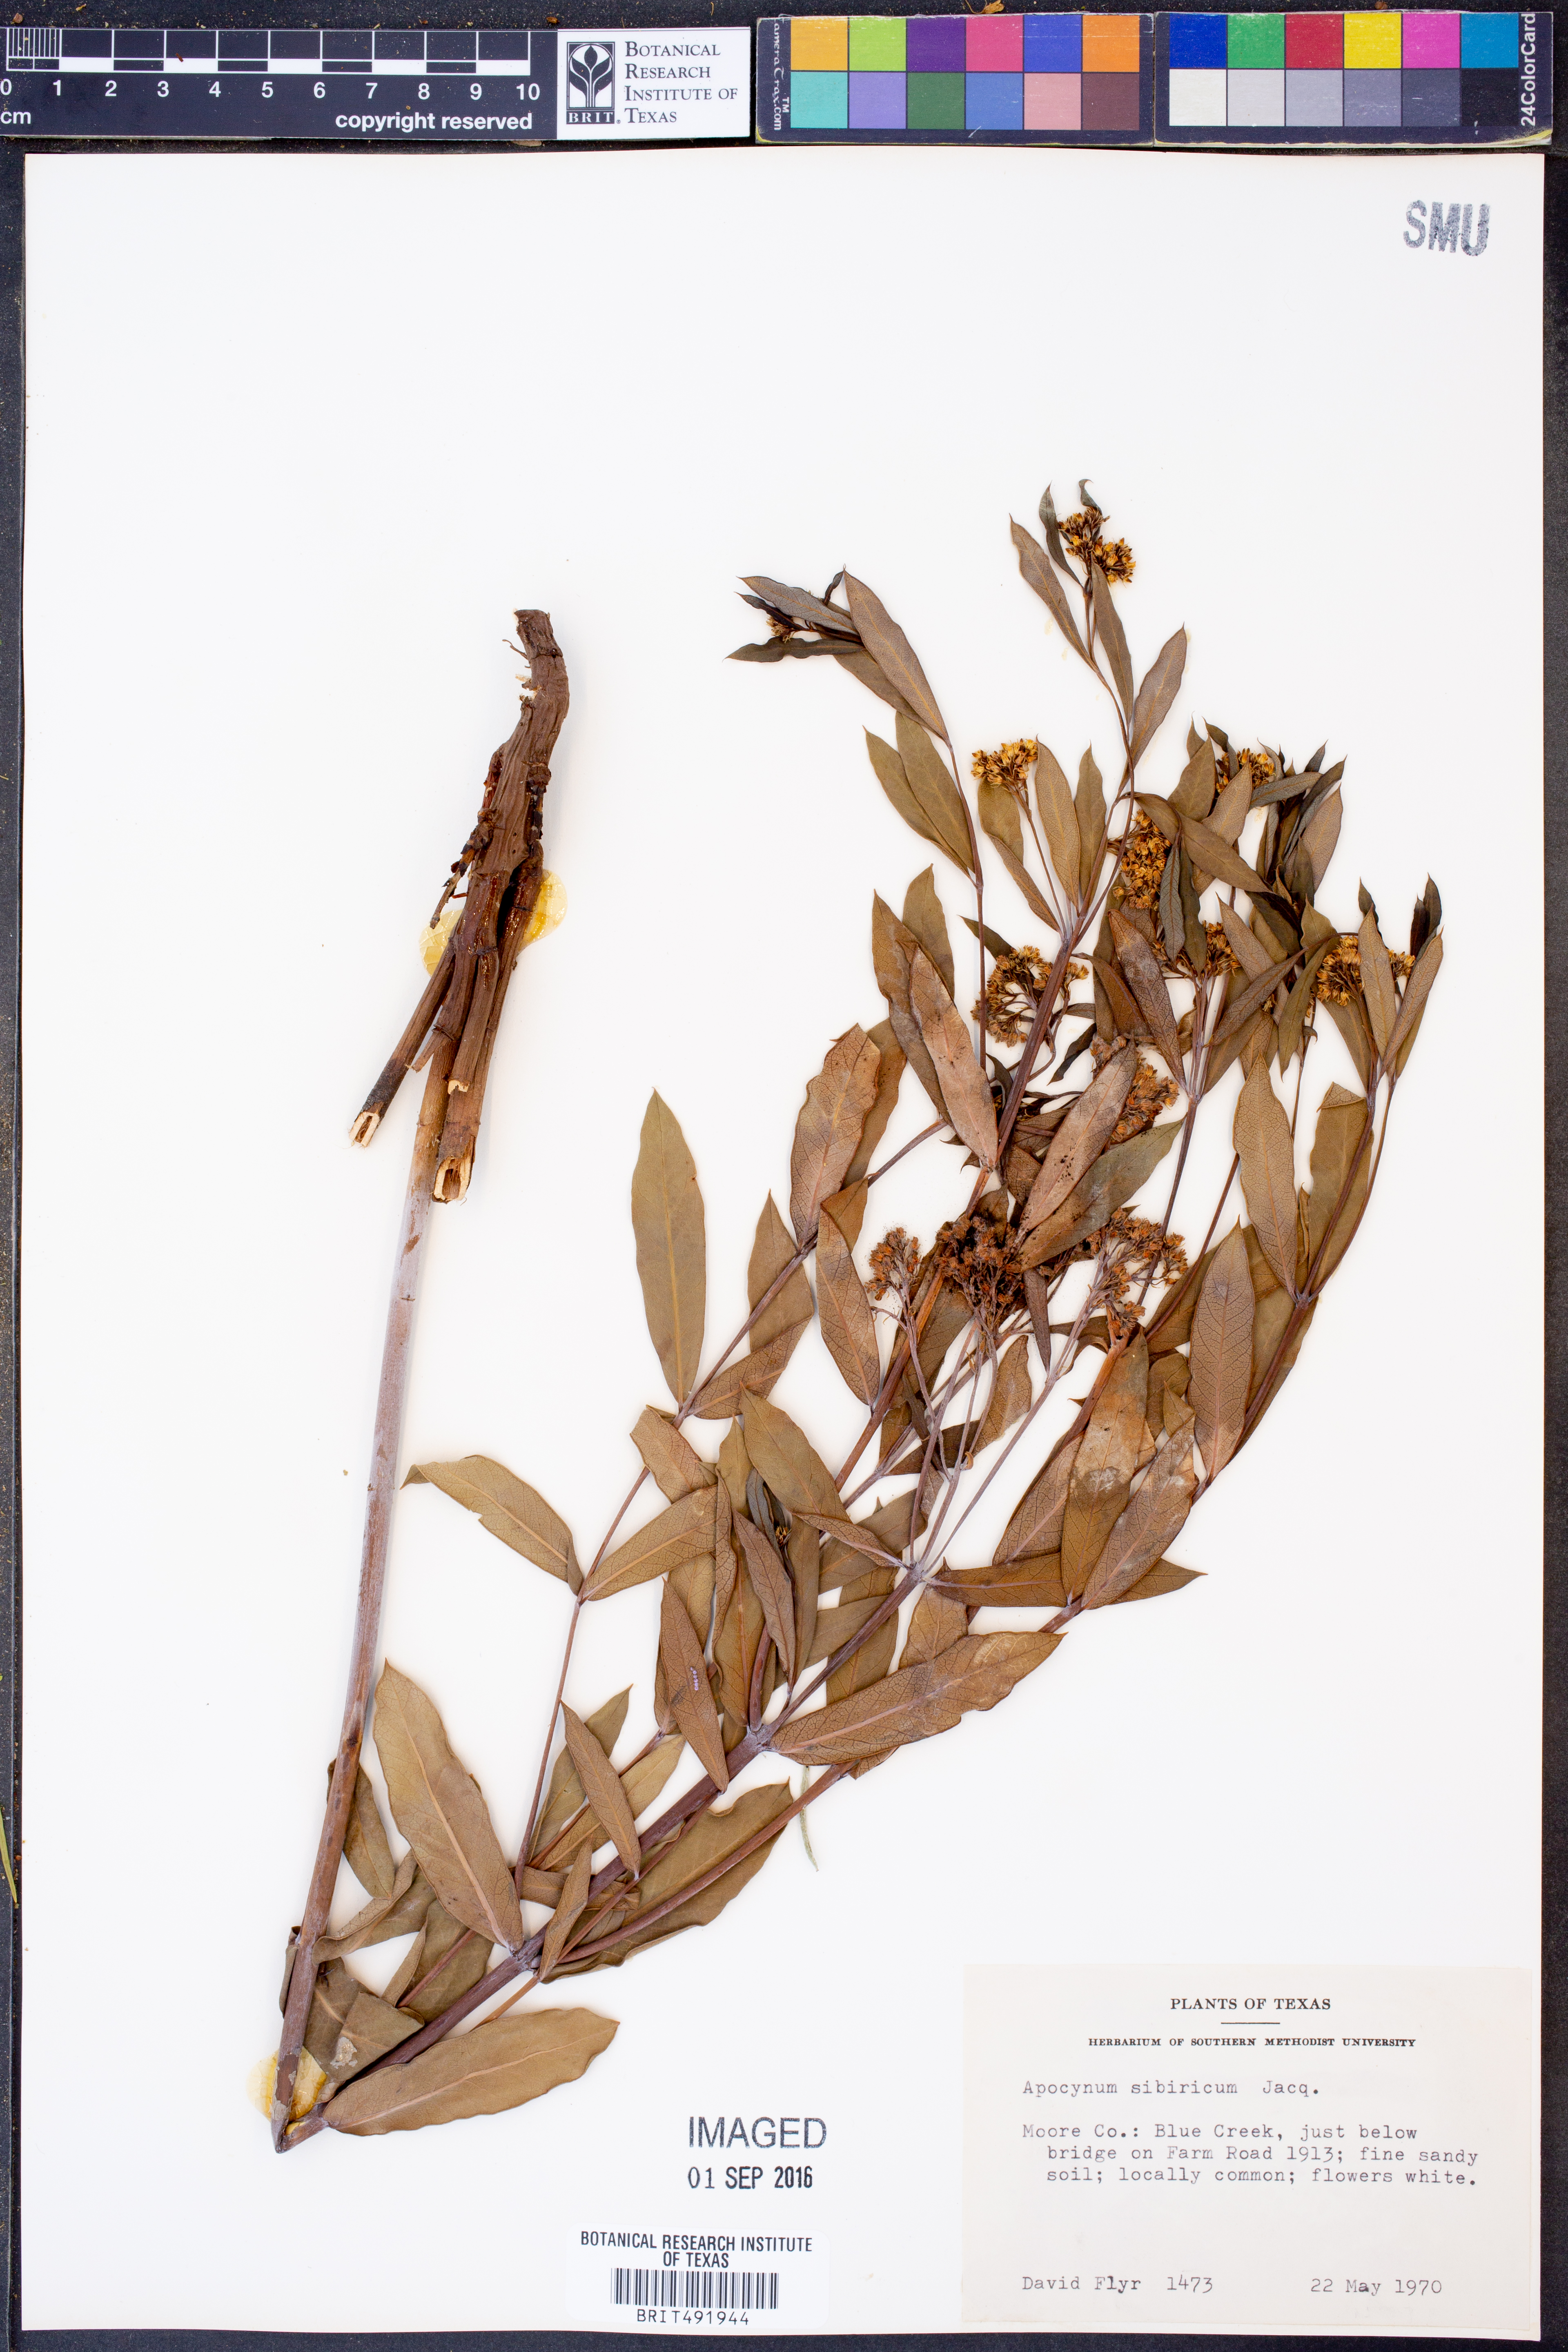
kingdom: Plantae
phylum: Tracheophyta
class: Magnoliopsida
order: Gentianales
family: Apocynaceae
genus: Apocynum
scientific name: Apocynum cannabinum
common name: Hemp dogbane
